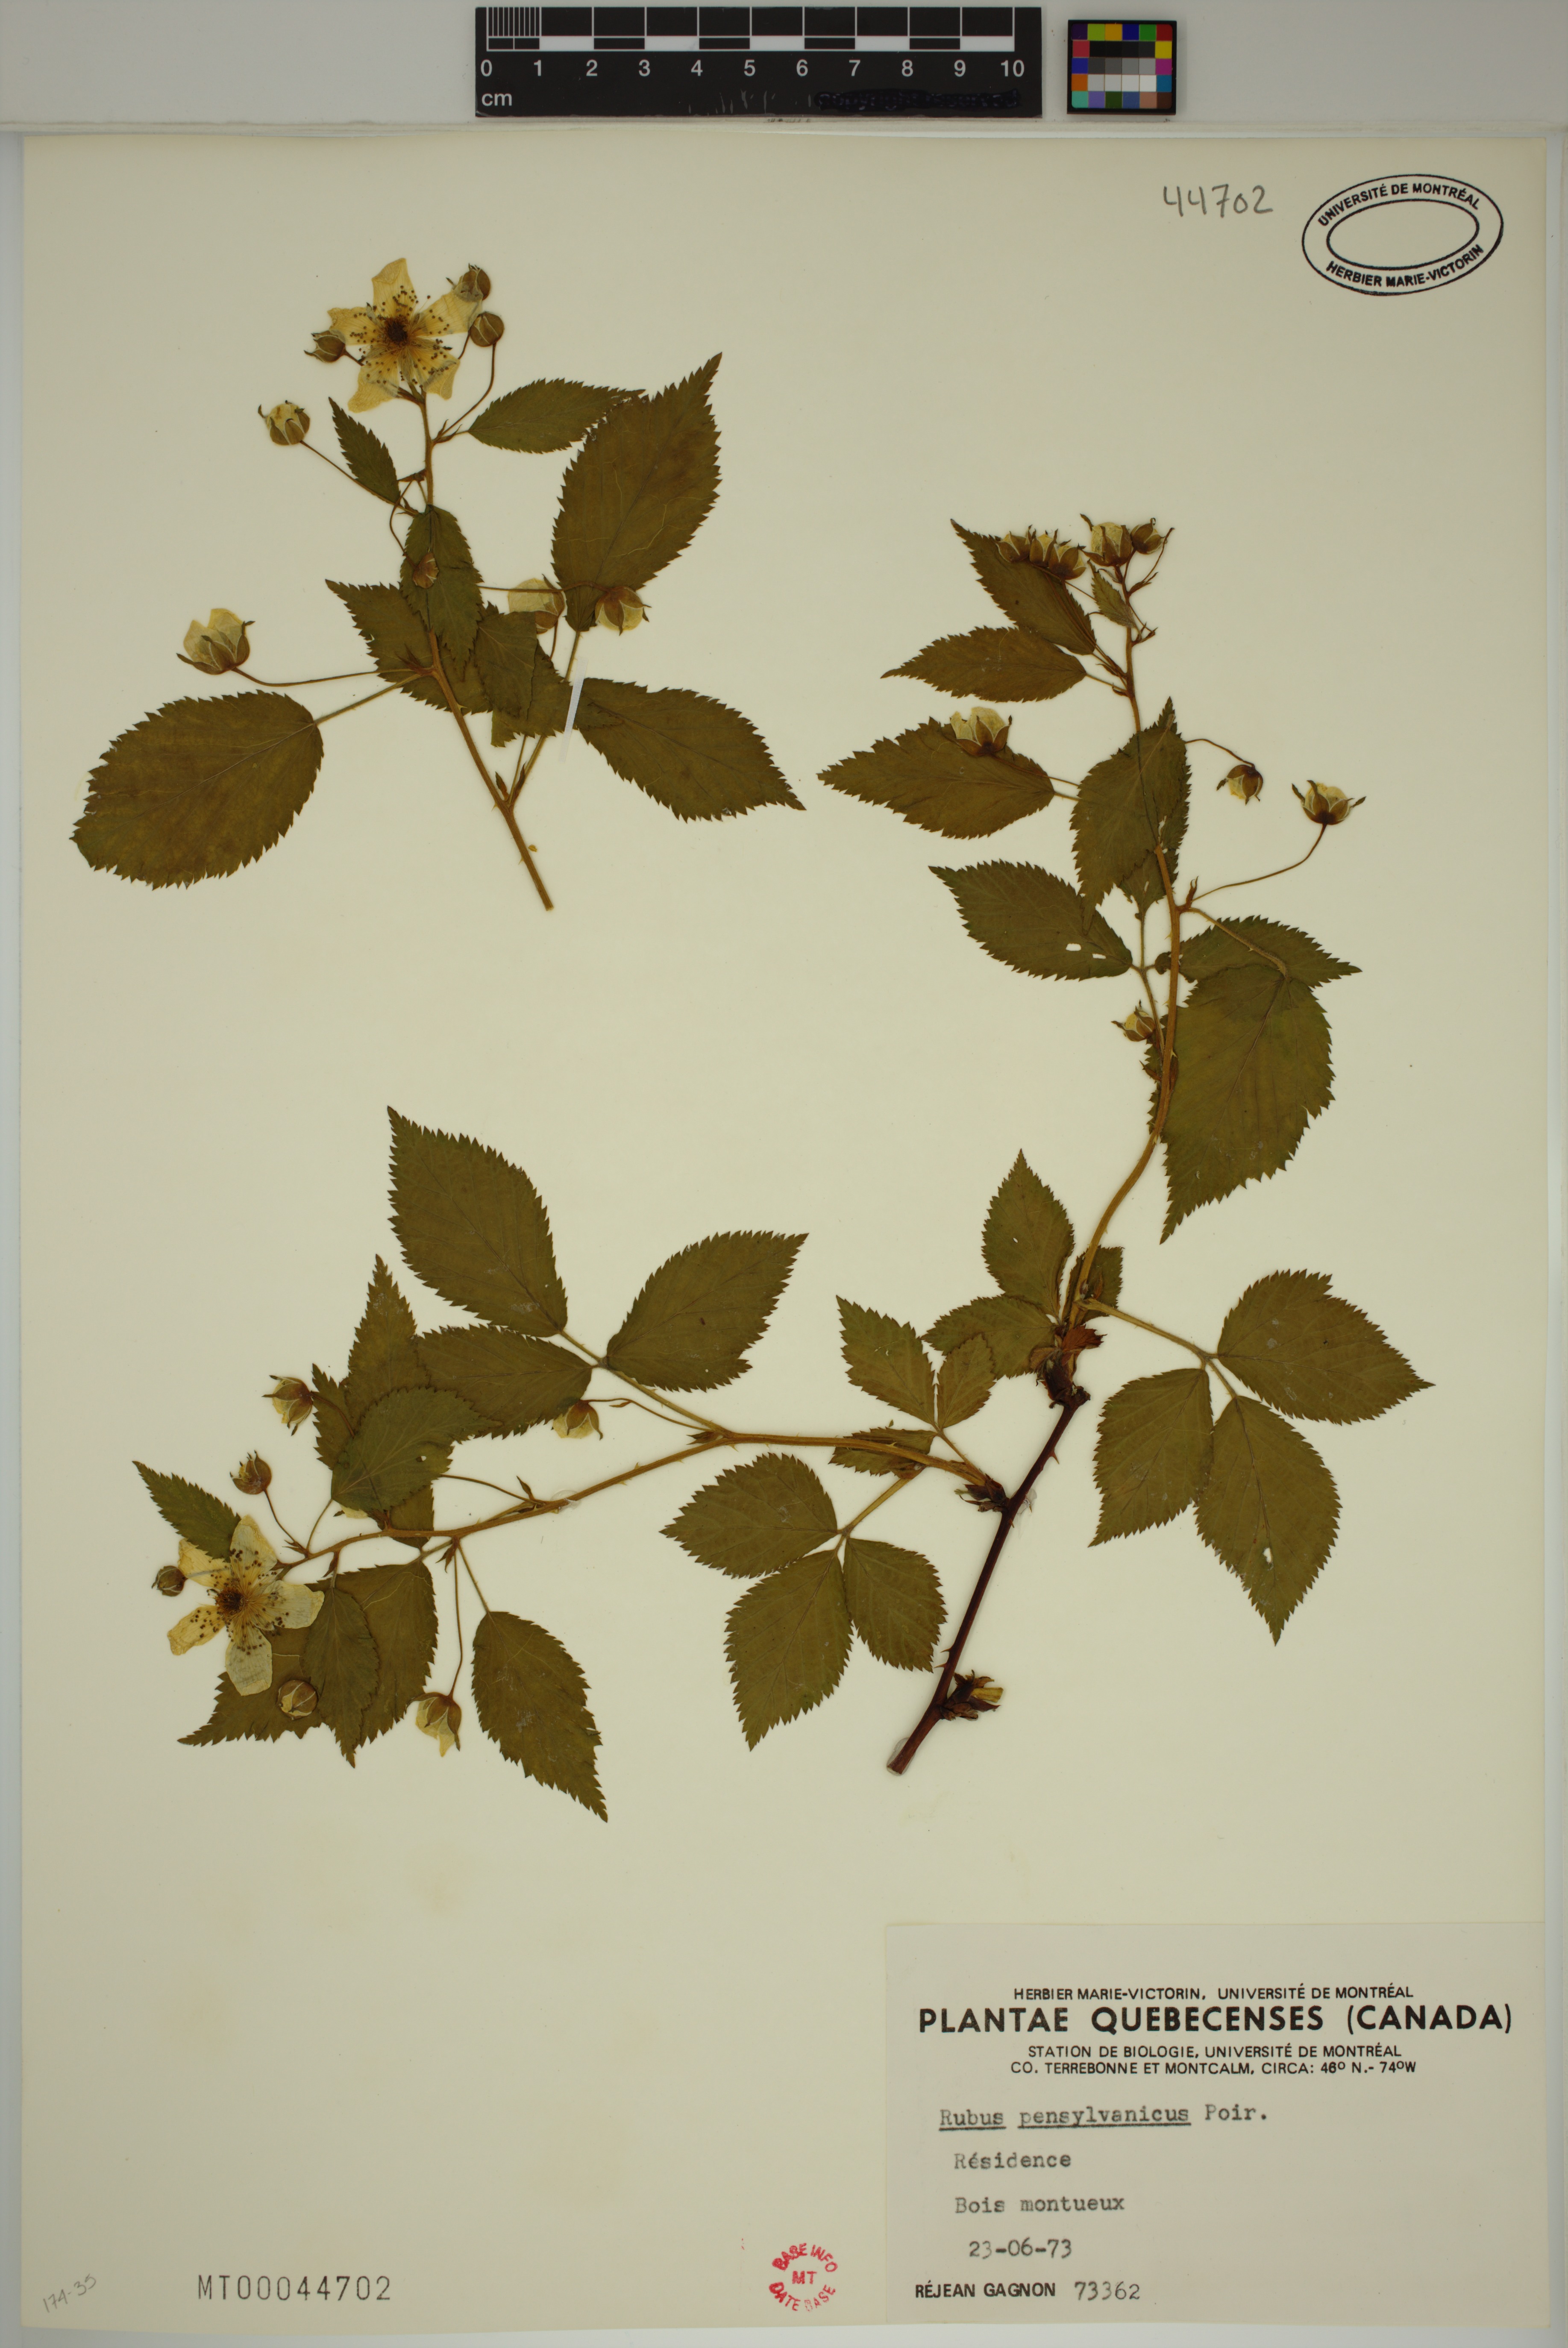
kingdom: Plantae
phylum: Tracheophyta
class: Magnoliopsida
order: Rosales
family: Rosaceae
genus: Rubus
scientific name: Rubus pensilvanicus
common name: Pennsylvania blackberry
